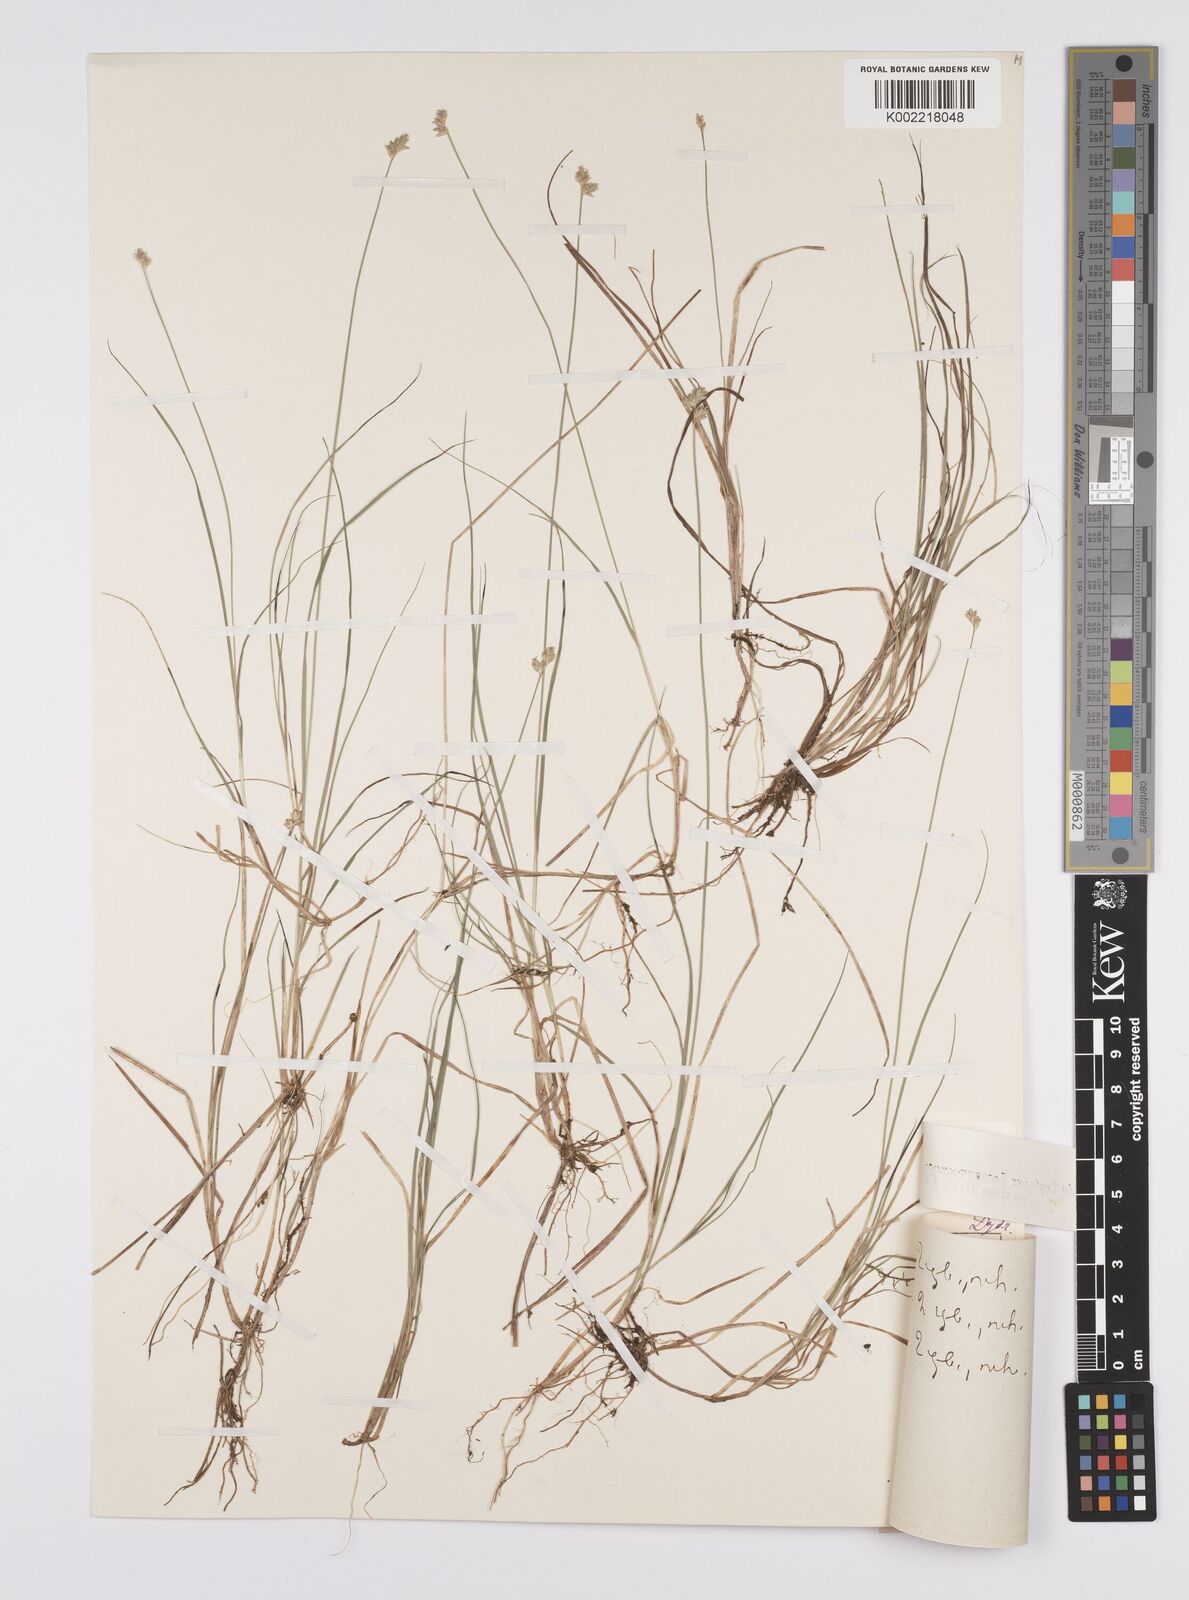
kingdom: Plantae
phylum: Tracheophyta
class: Liliopsida
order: Poales
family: Cyperaceae
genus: Carex
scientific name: Carex tenuiflora
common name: Sparse-flowered sedge
